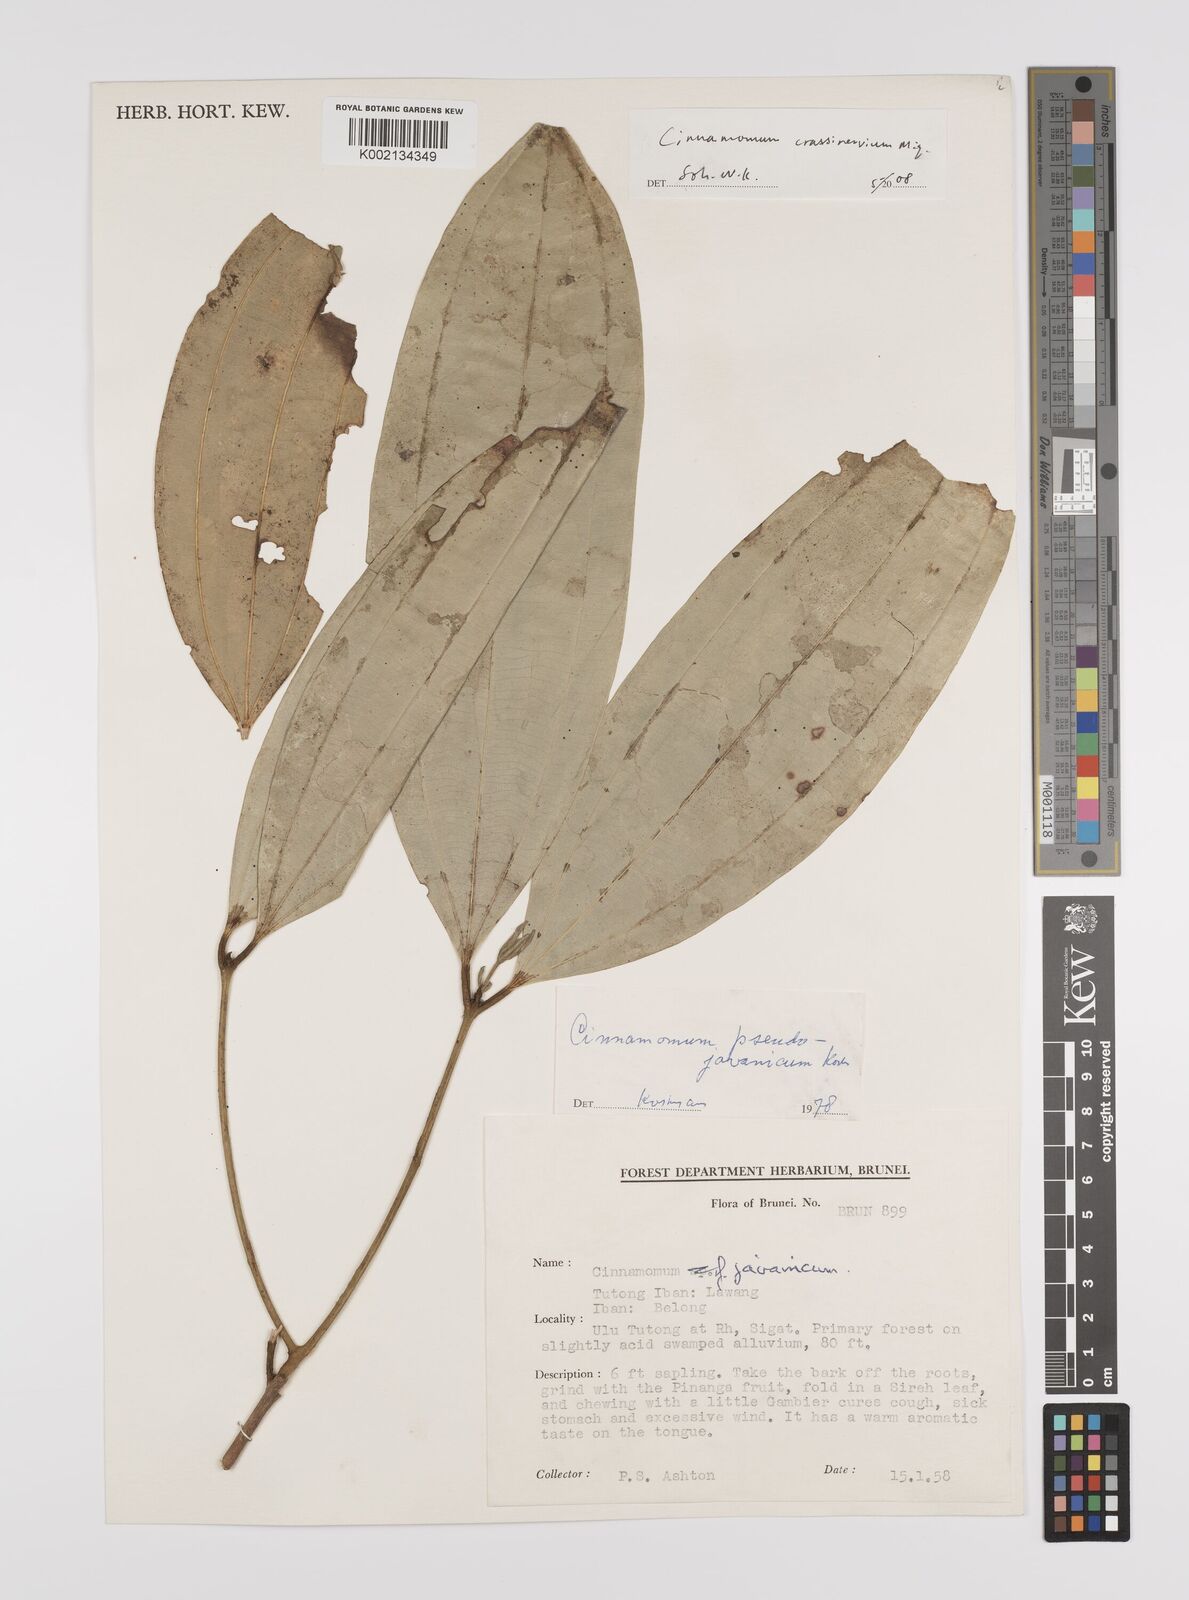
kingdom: Plantae
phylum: Tracheophyta
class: Magnoliopsida
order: Laurales
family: Lauraceae
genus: Cinnamomum
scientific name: Cinnamomum crassinervium
